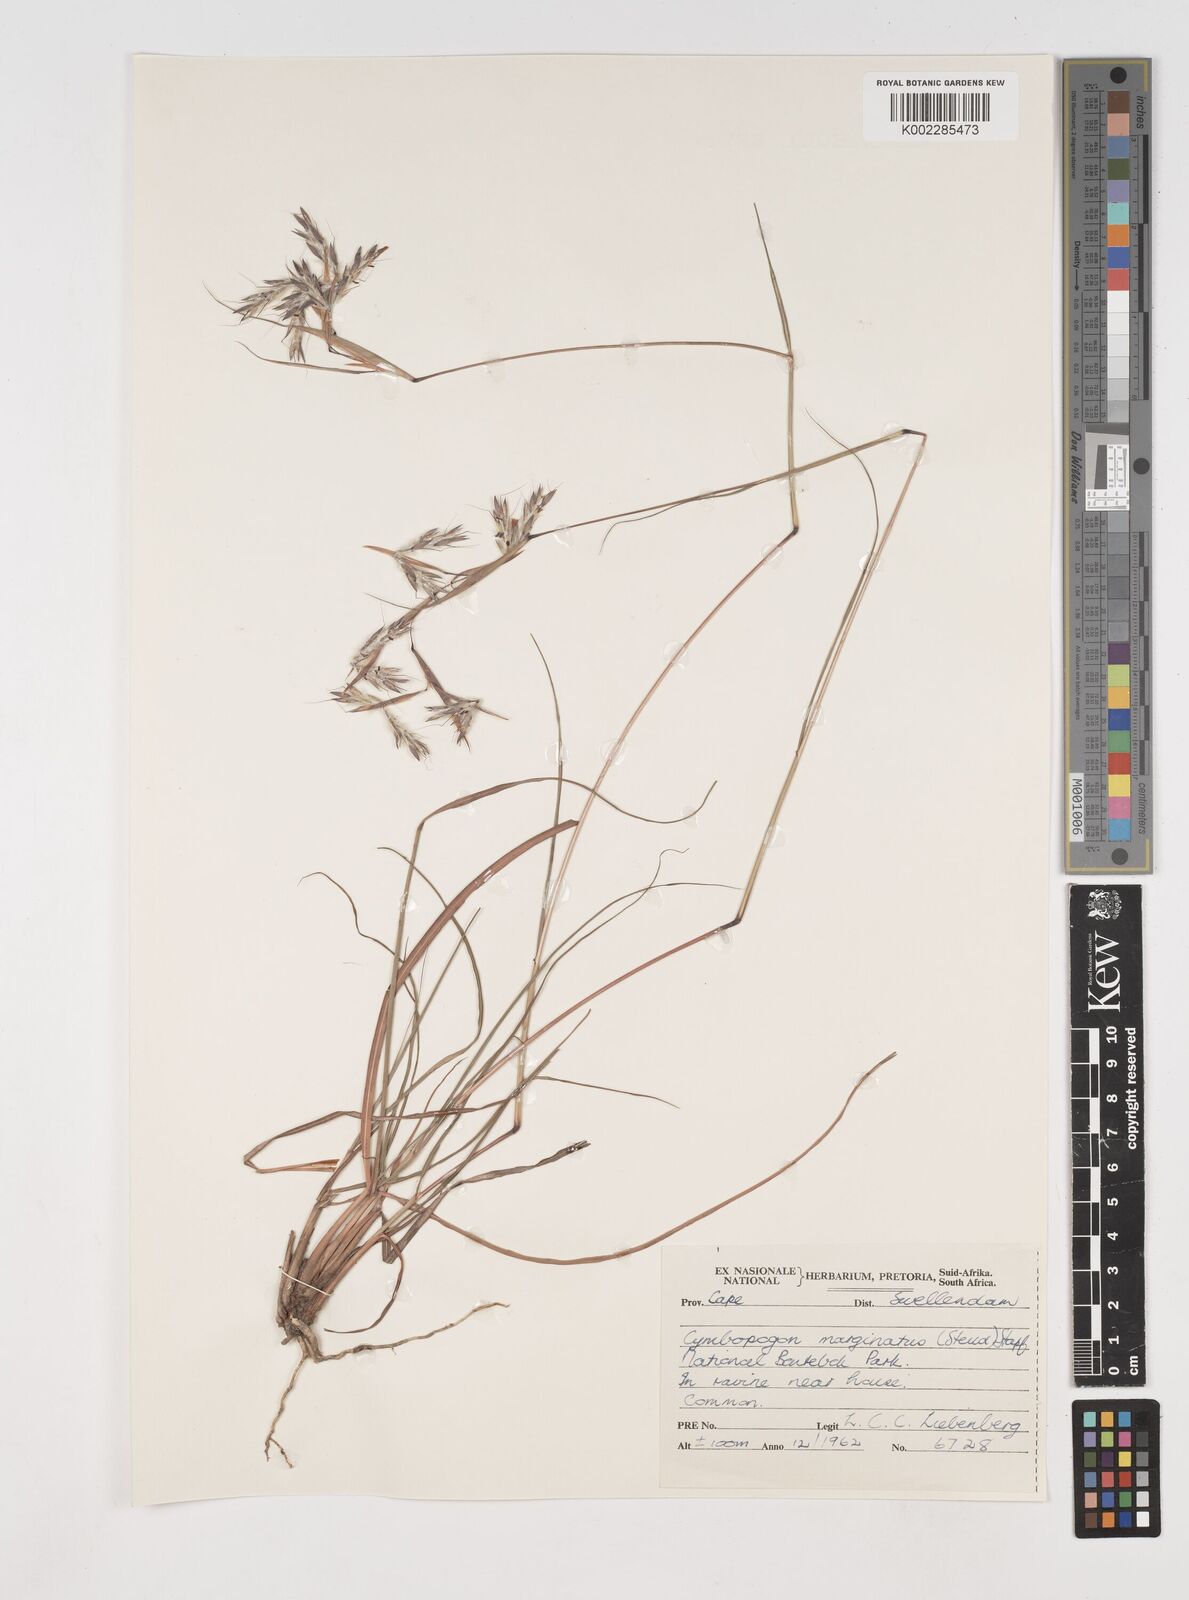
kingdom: Plantae
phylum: Tracheophyta
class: Liliopsida
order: Poales
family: Poaceae
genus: Cymbopogon
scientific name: Cymbopogon pospischilii
